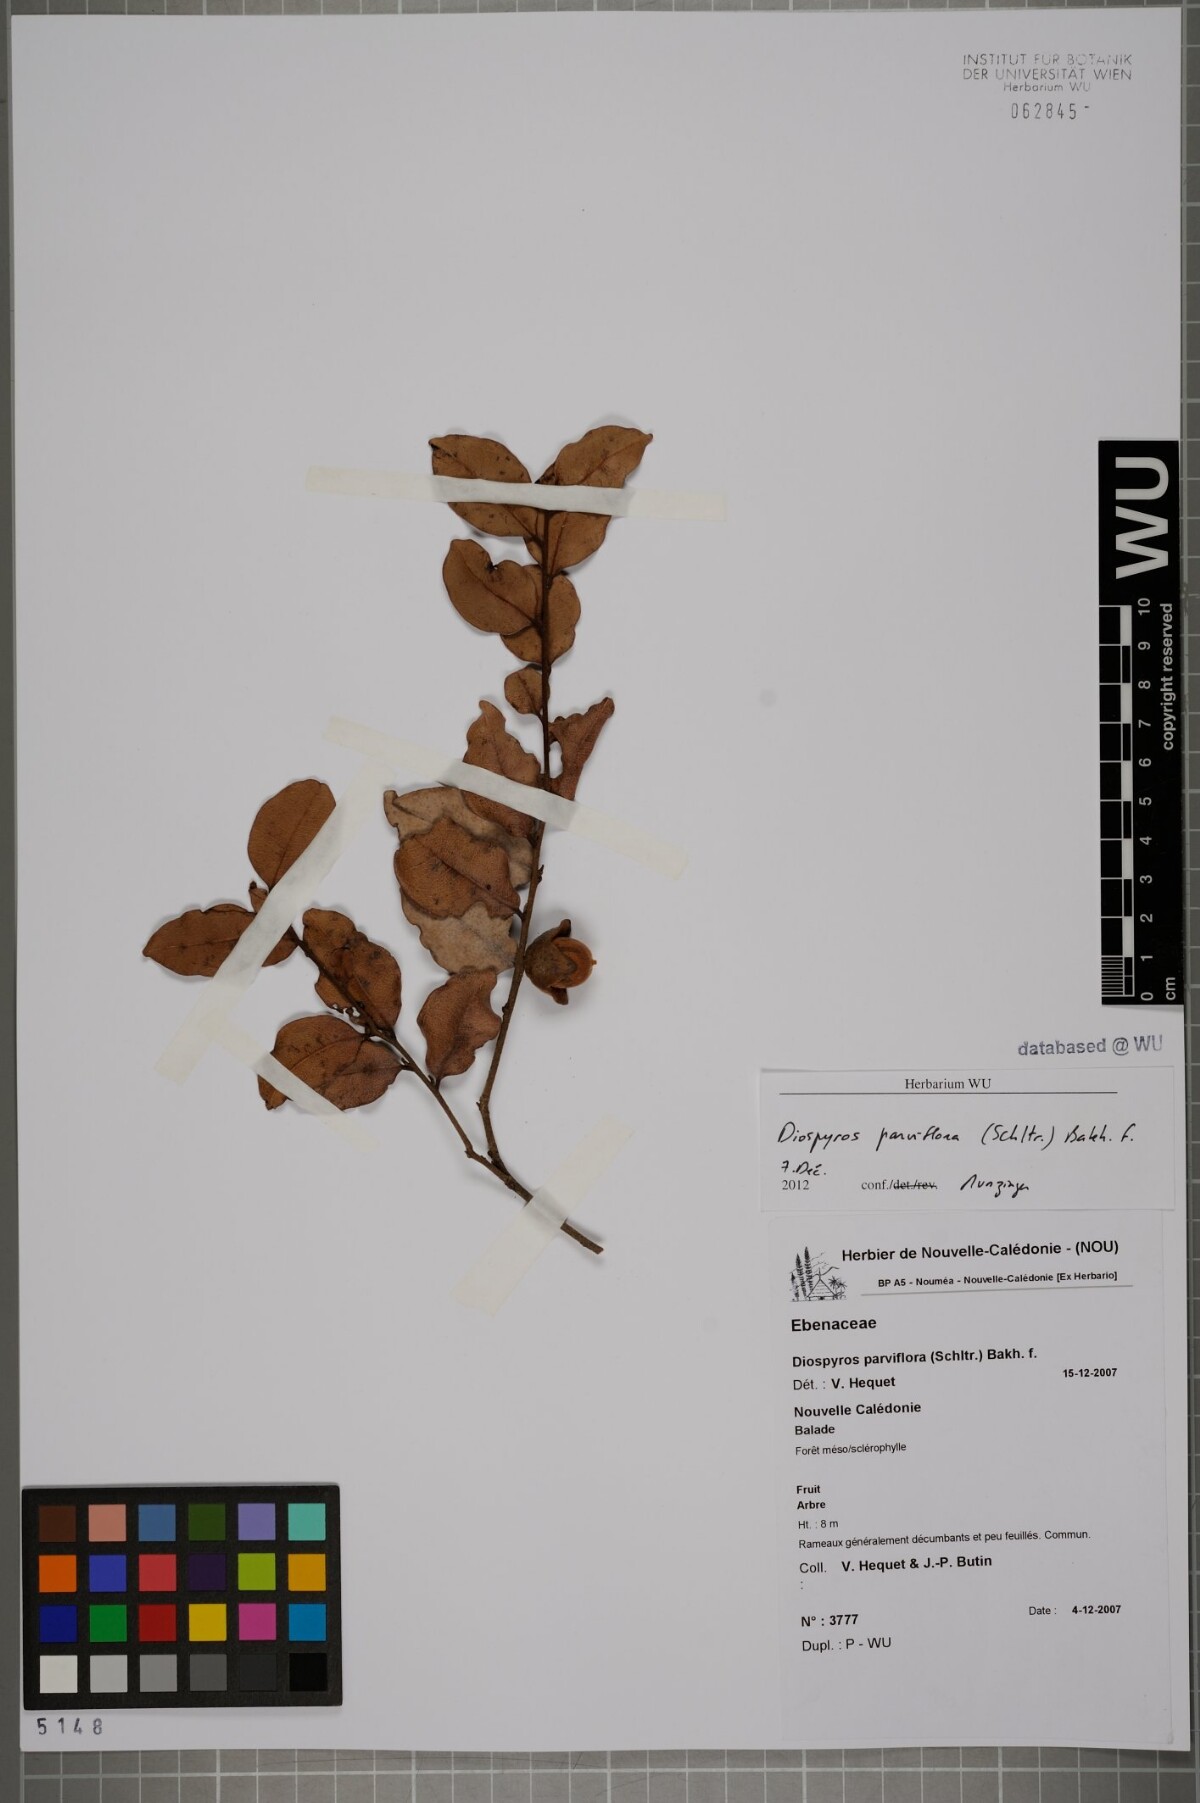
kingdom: Plantae
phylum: Tracheophyta
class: Magnoliopsida
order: Ericales
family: Ebenaceae
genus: Diospyros
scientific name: Diospyros parviflora
